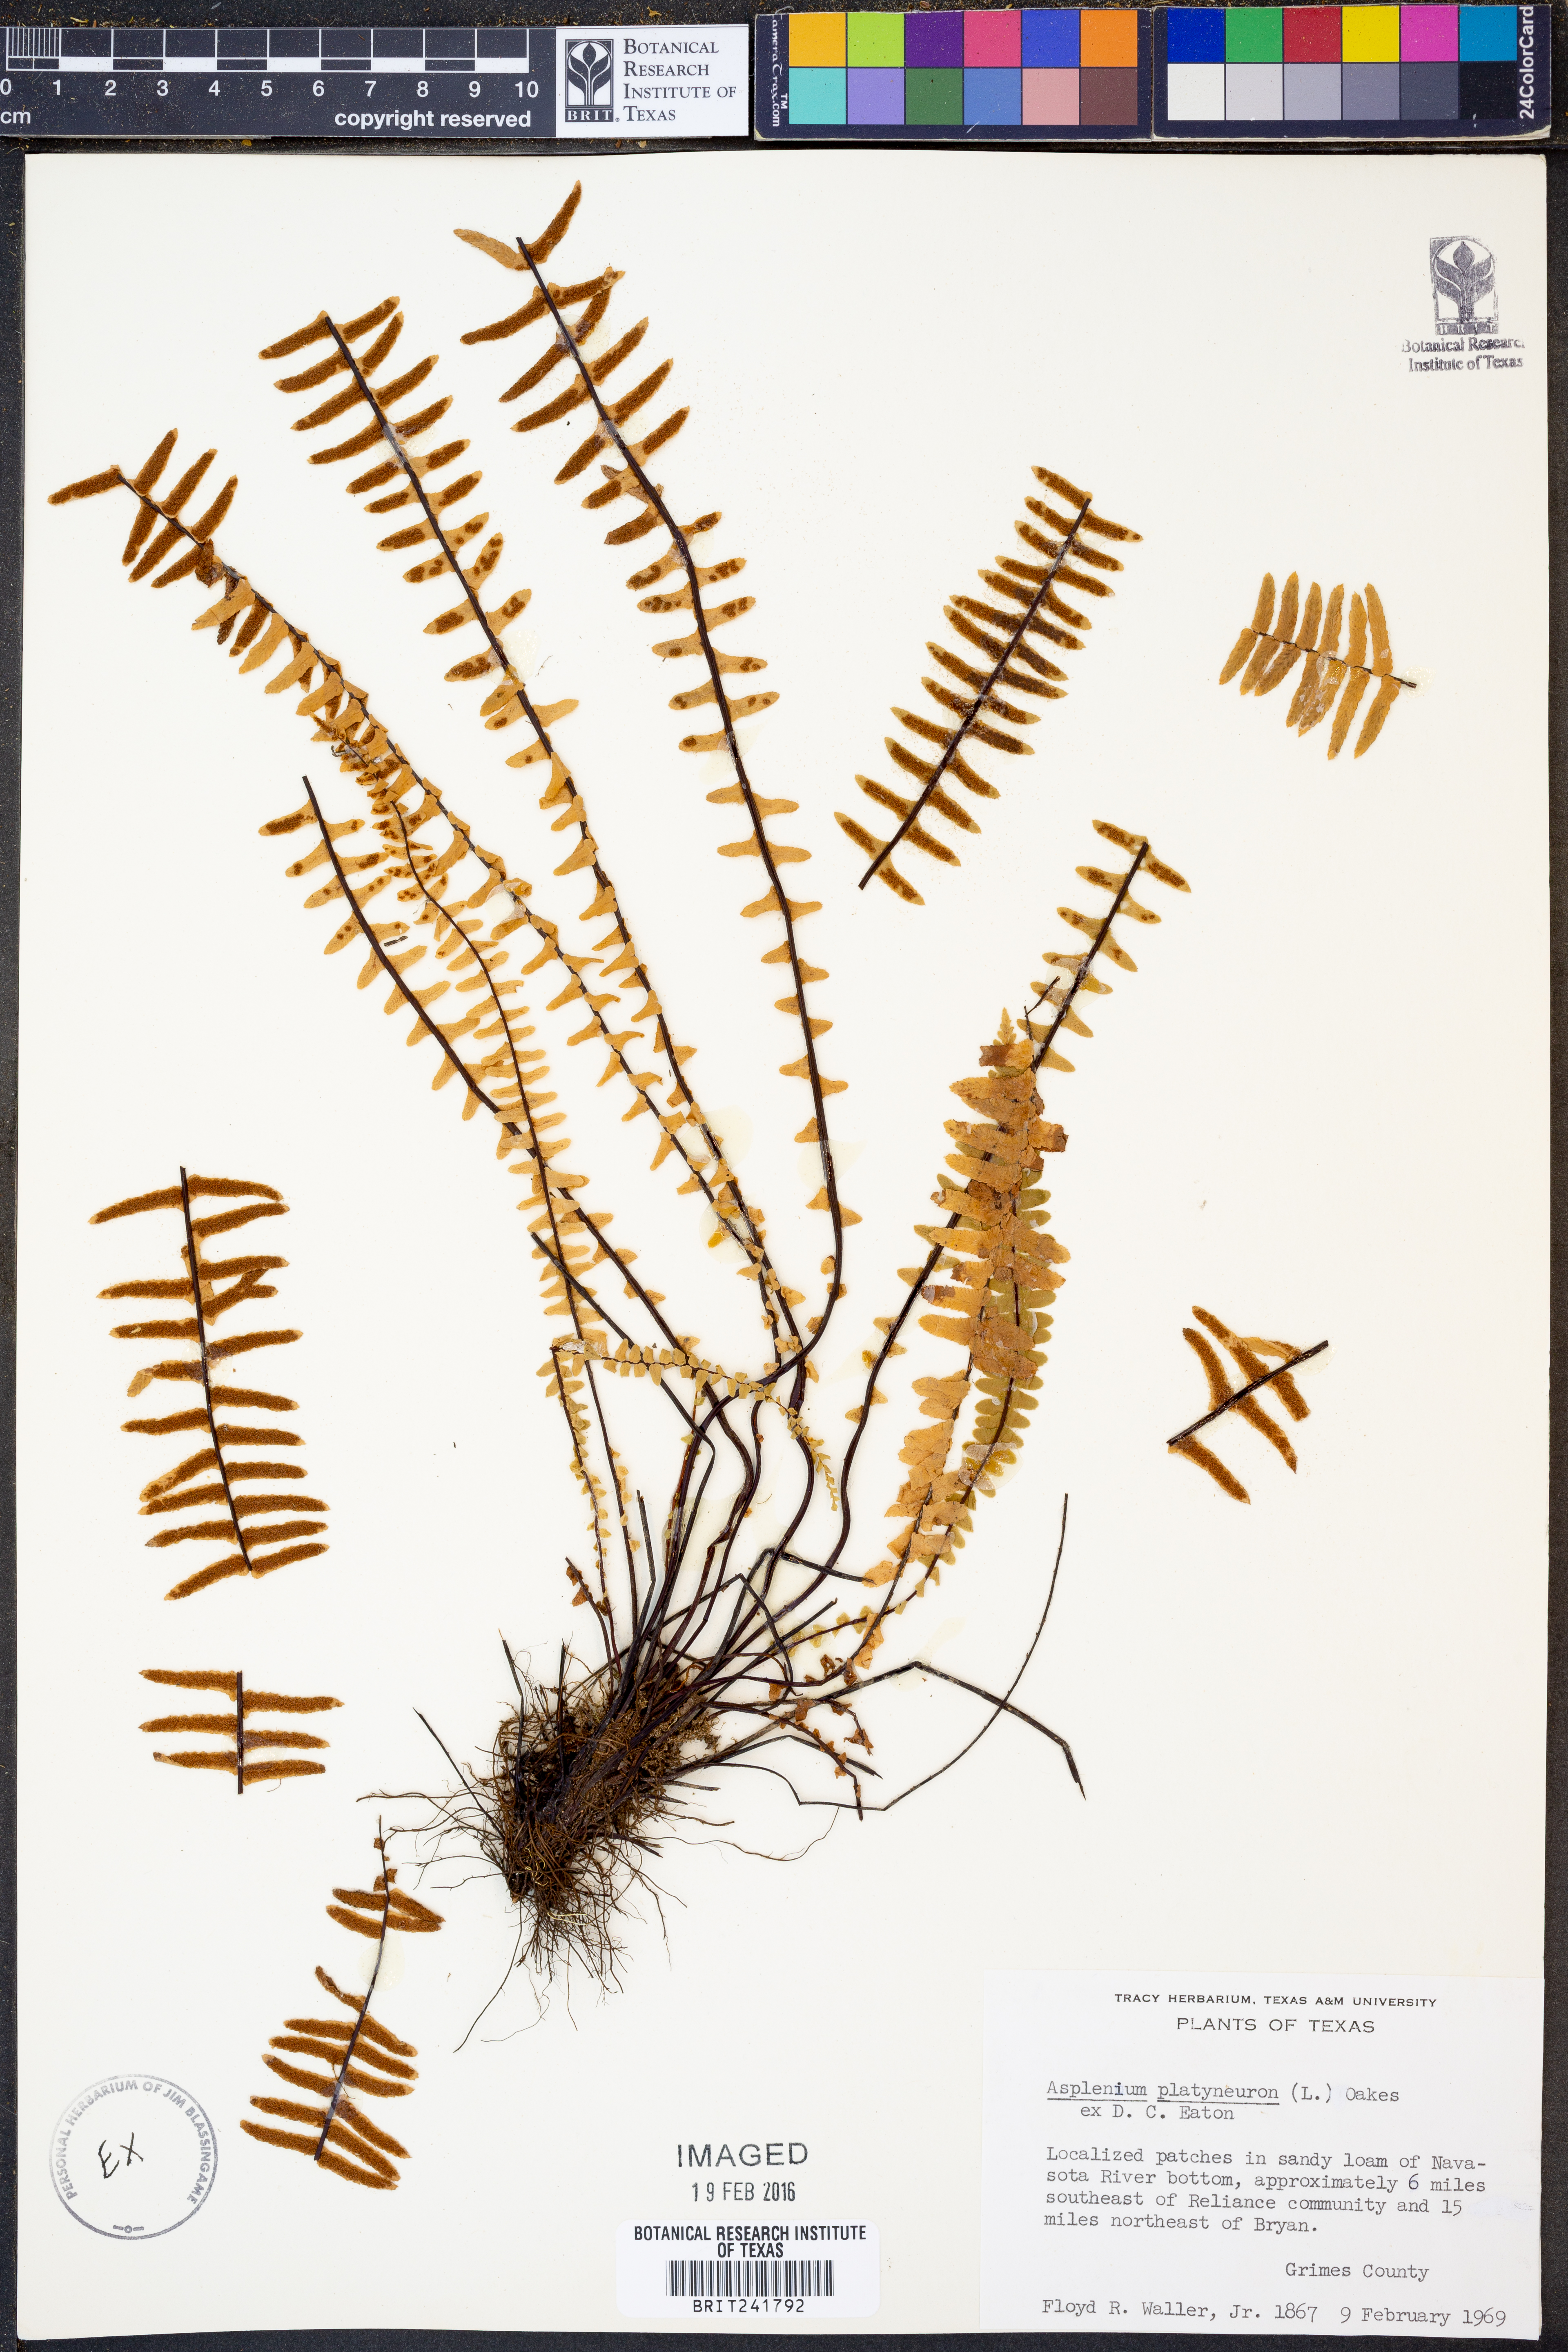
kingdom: Plantae
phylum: Tracheophyta
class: Polypodiopsida
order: Polypodiales
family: Aspleniaceae
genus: Asplenium
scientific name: Asplenium platyneuron
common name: Ebony spleenwort
